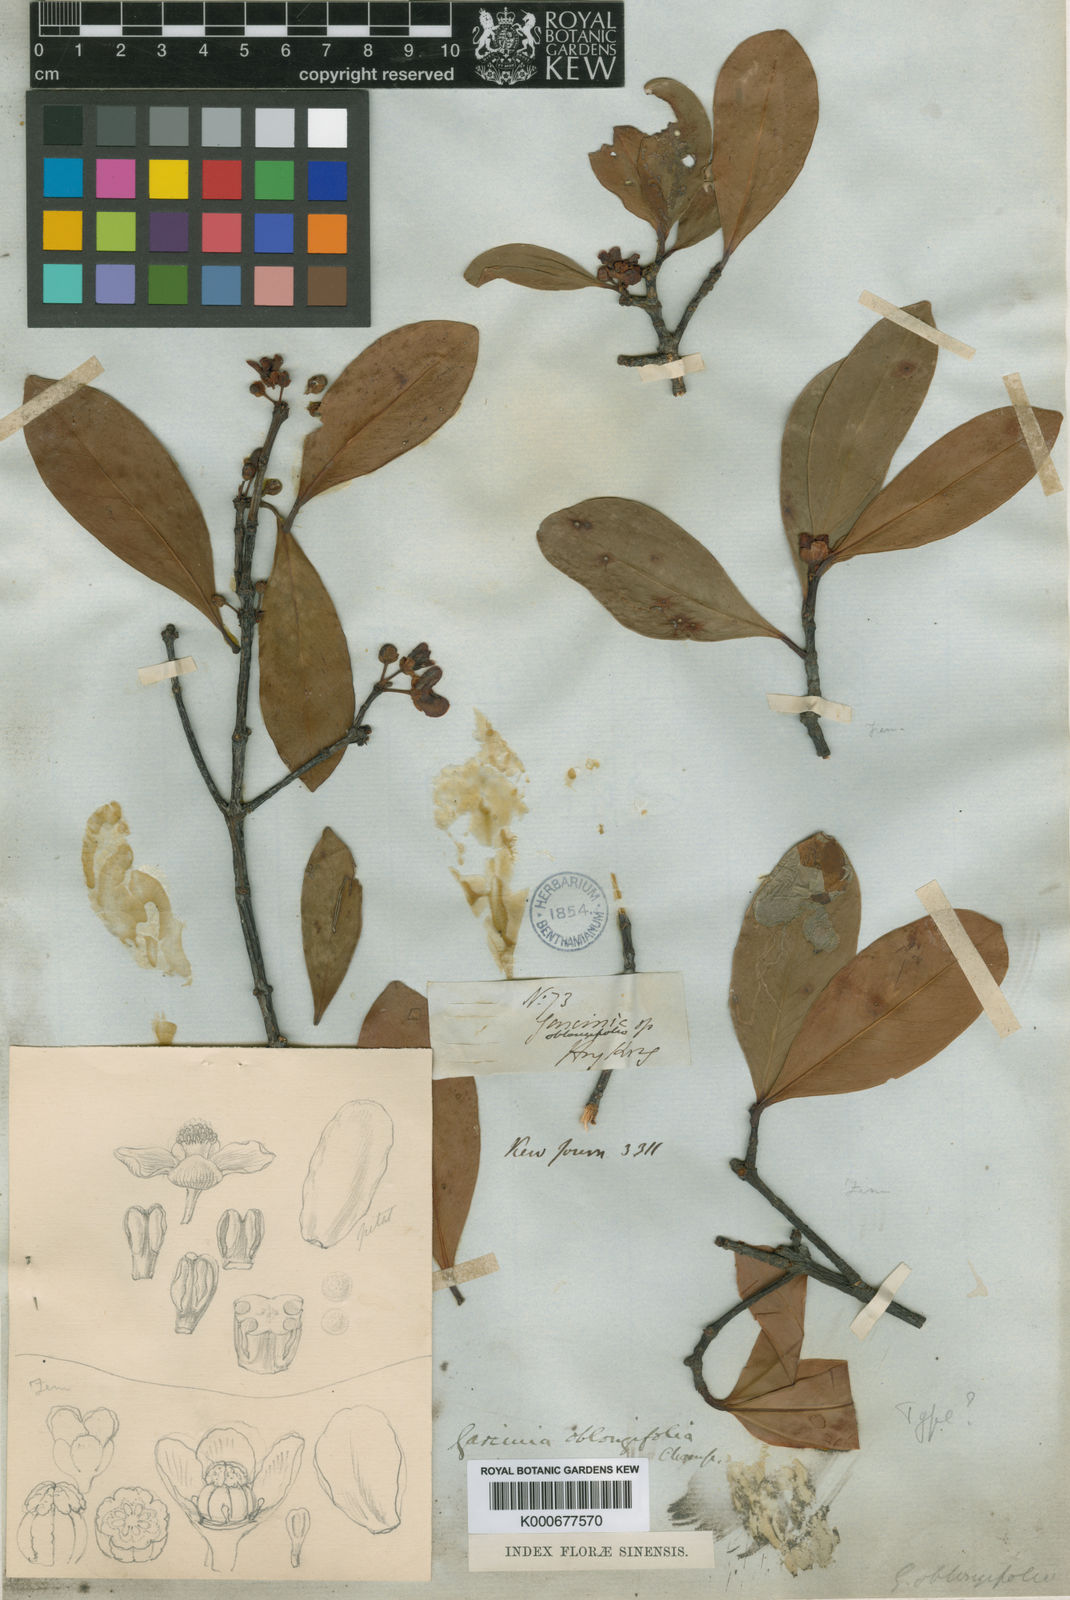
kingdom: Plantae
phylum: Tracheophyta
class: Magnoliopsida
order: Malpighiales
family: Clusiaceae
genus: Garcinia
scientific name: Garcinia oblongifolia
